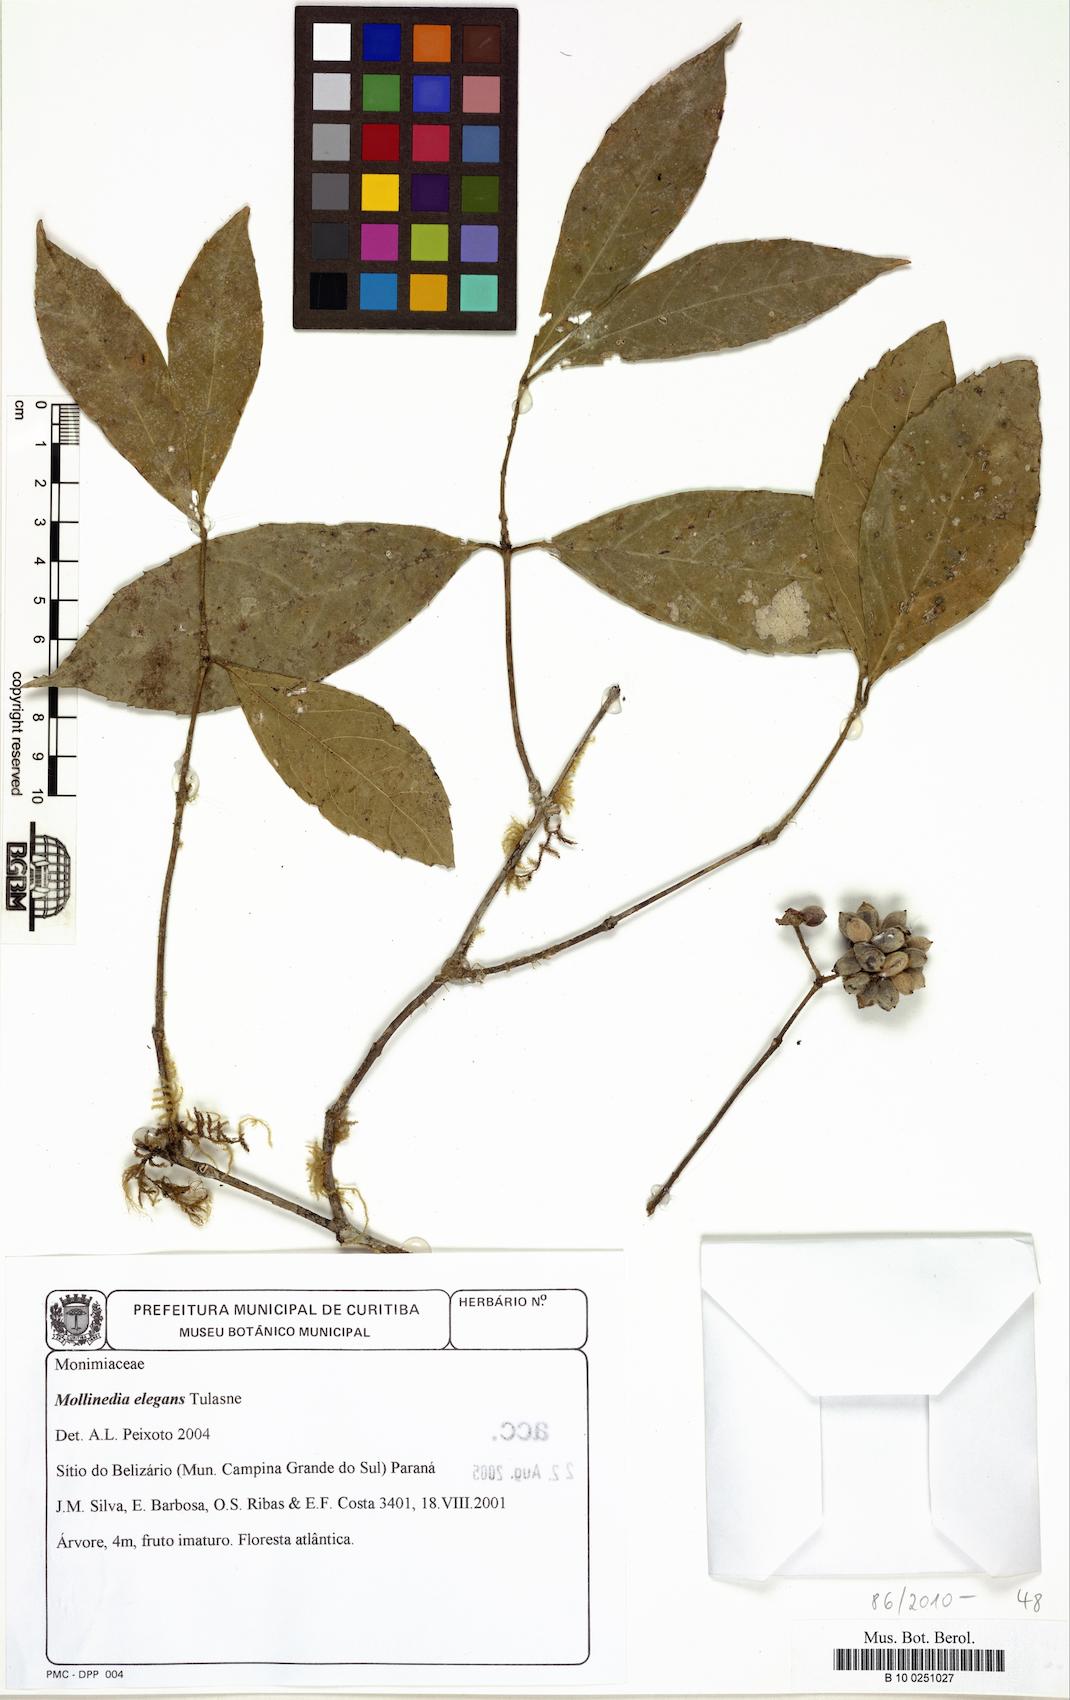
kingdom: Plantae
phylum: Tracheophyta
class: Magnoliopsida
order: Laurales
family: Monimiaceae
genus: Mollinedia
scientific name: Mollinedia umbellata
